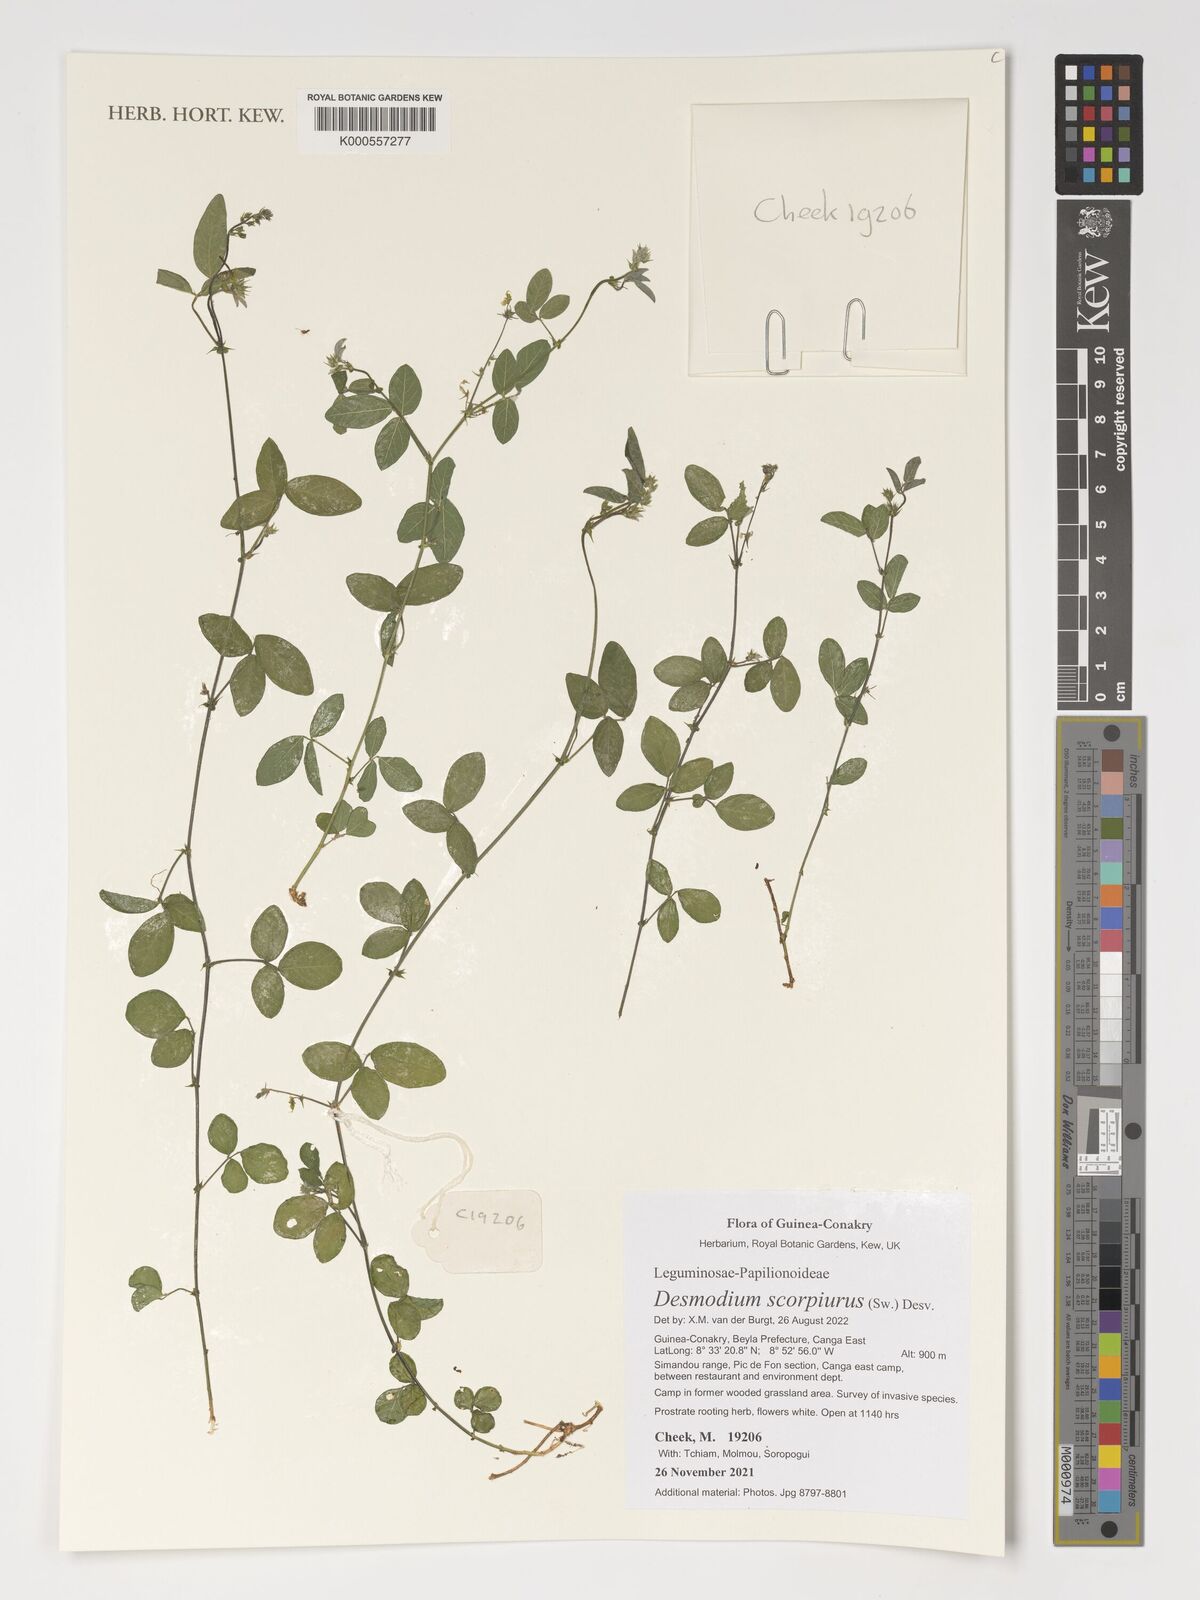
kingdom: Plantae
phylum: Tracheophyta
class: Magnoliopsida
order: Fabales
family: Fabaceae
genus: Desmodium
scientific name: Desmodium scorpiurus
